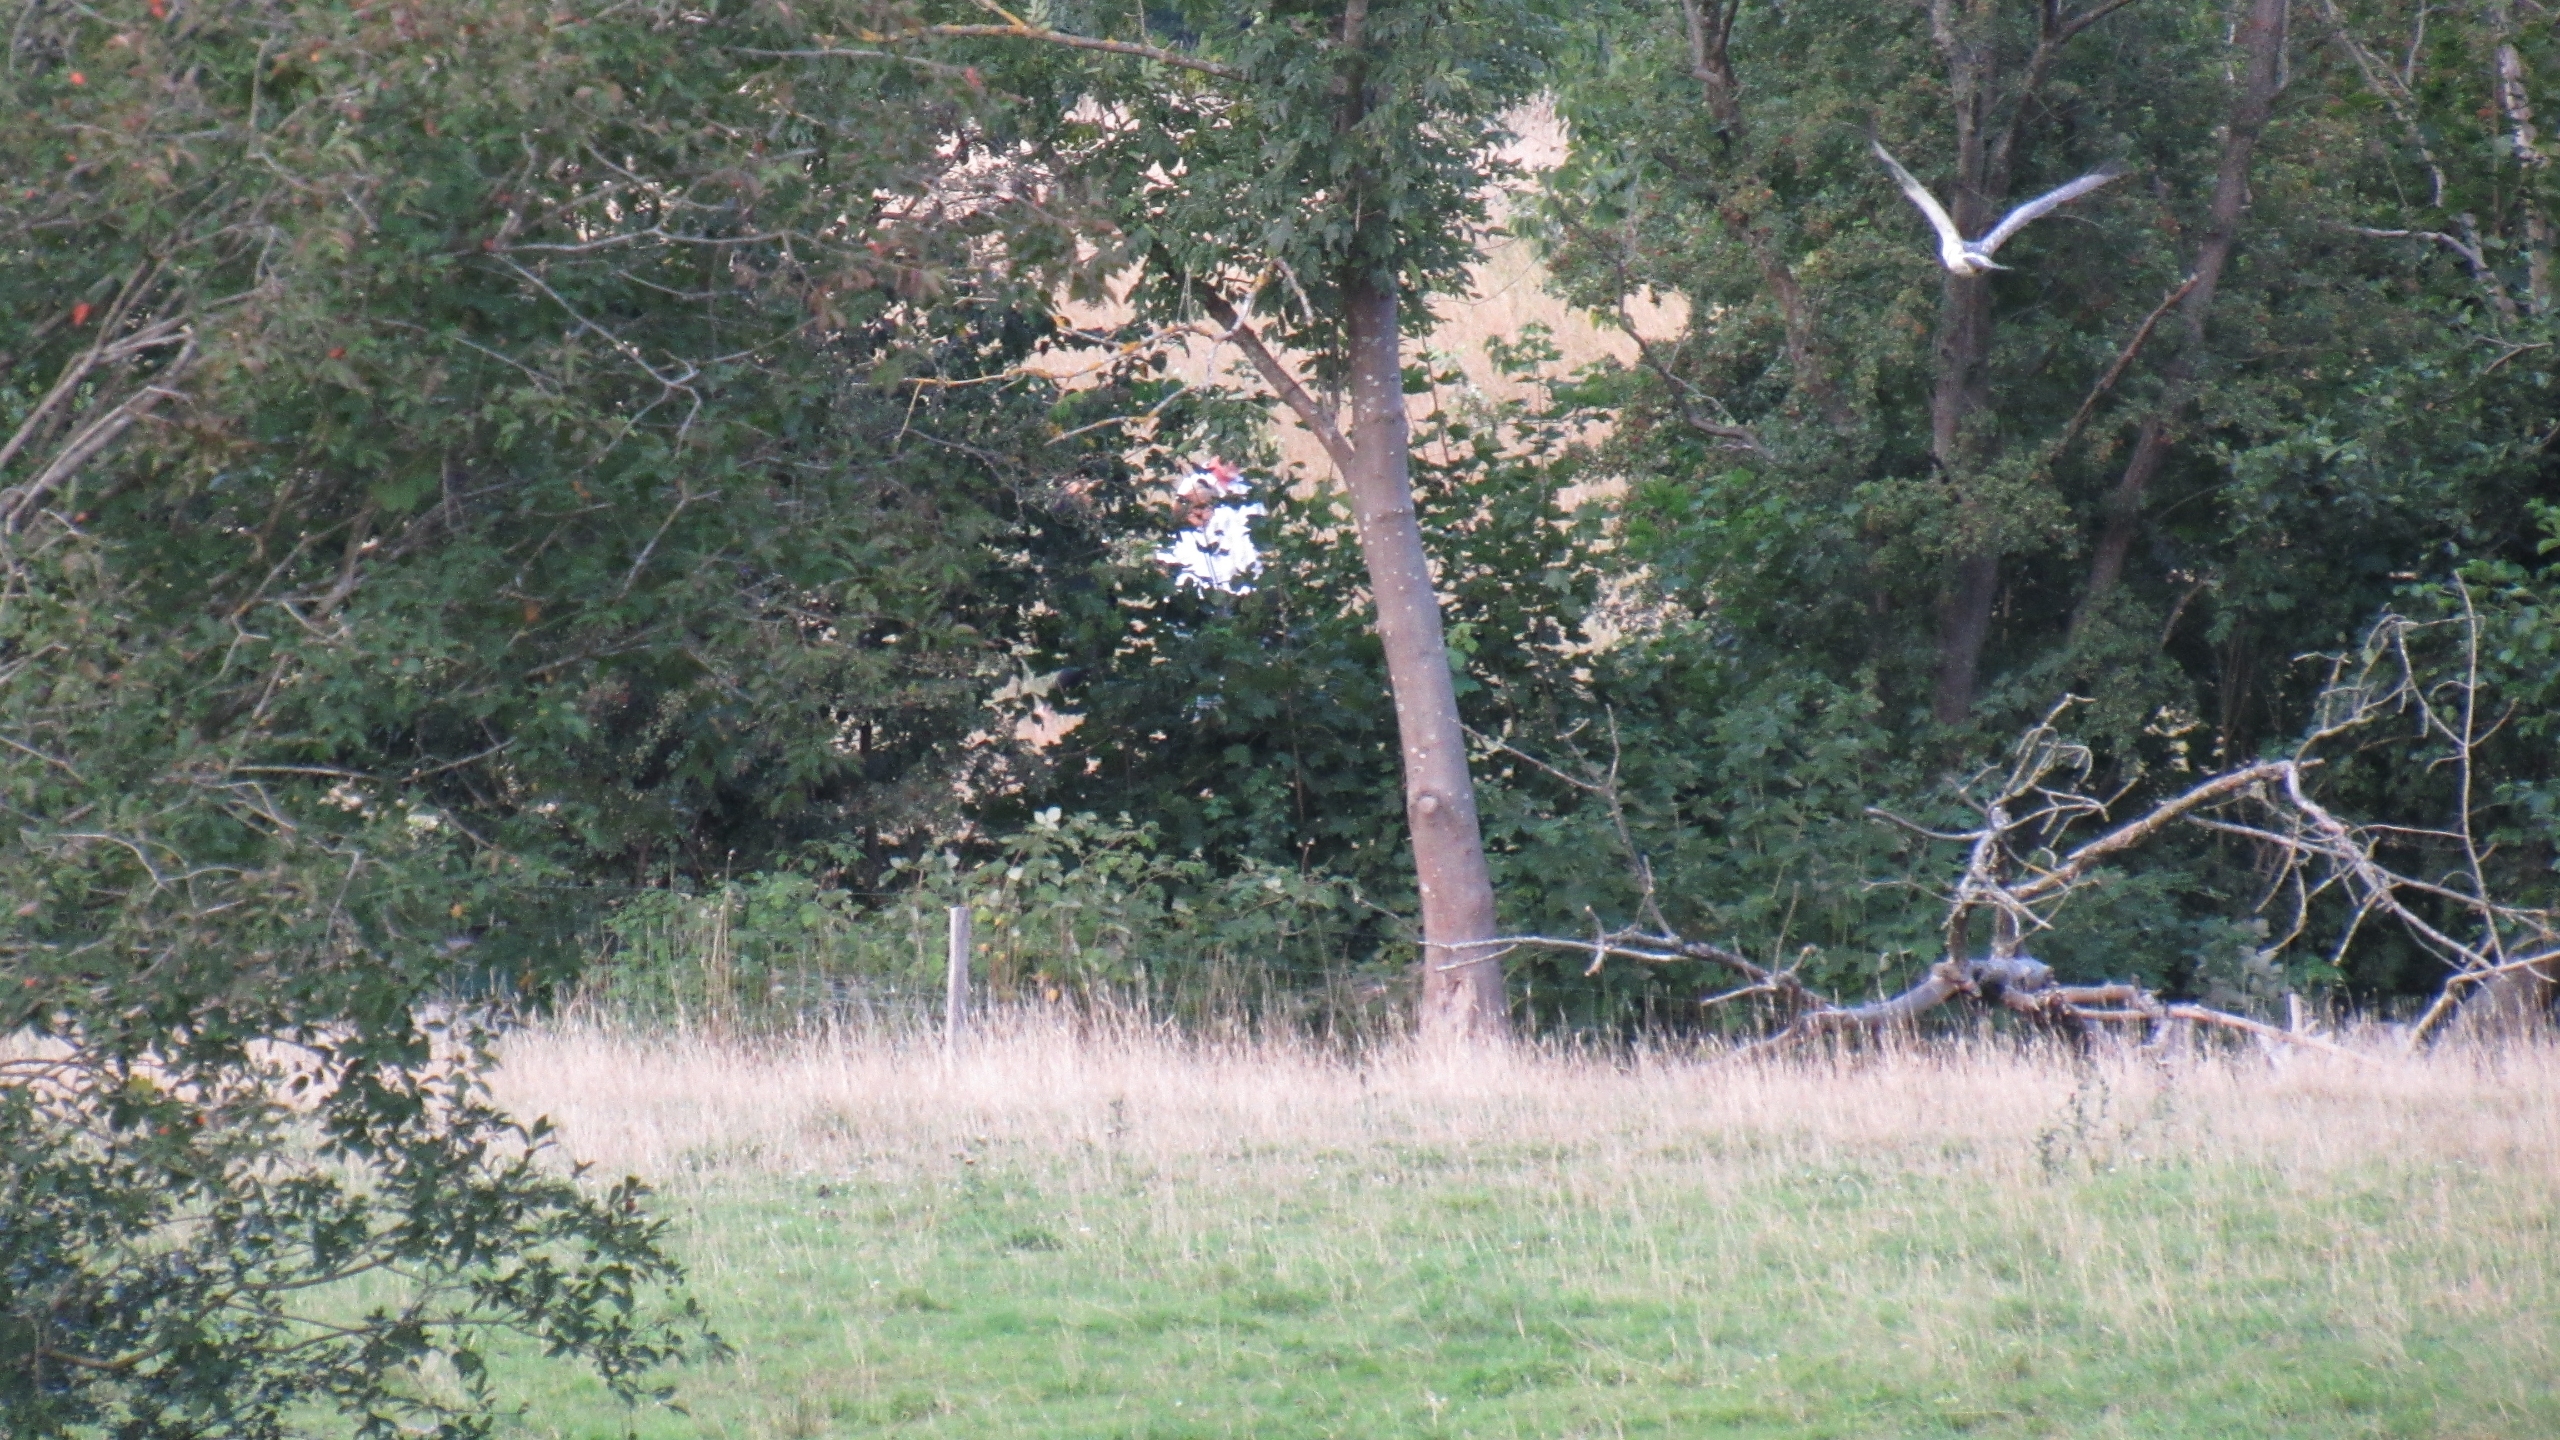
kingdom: Animalia
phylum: Chordata
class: Aves
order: Accipitriformes
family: Accipitridae
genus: Buteo
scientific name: Buteo buteo
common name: Musvåge
